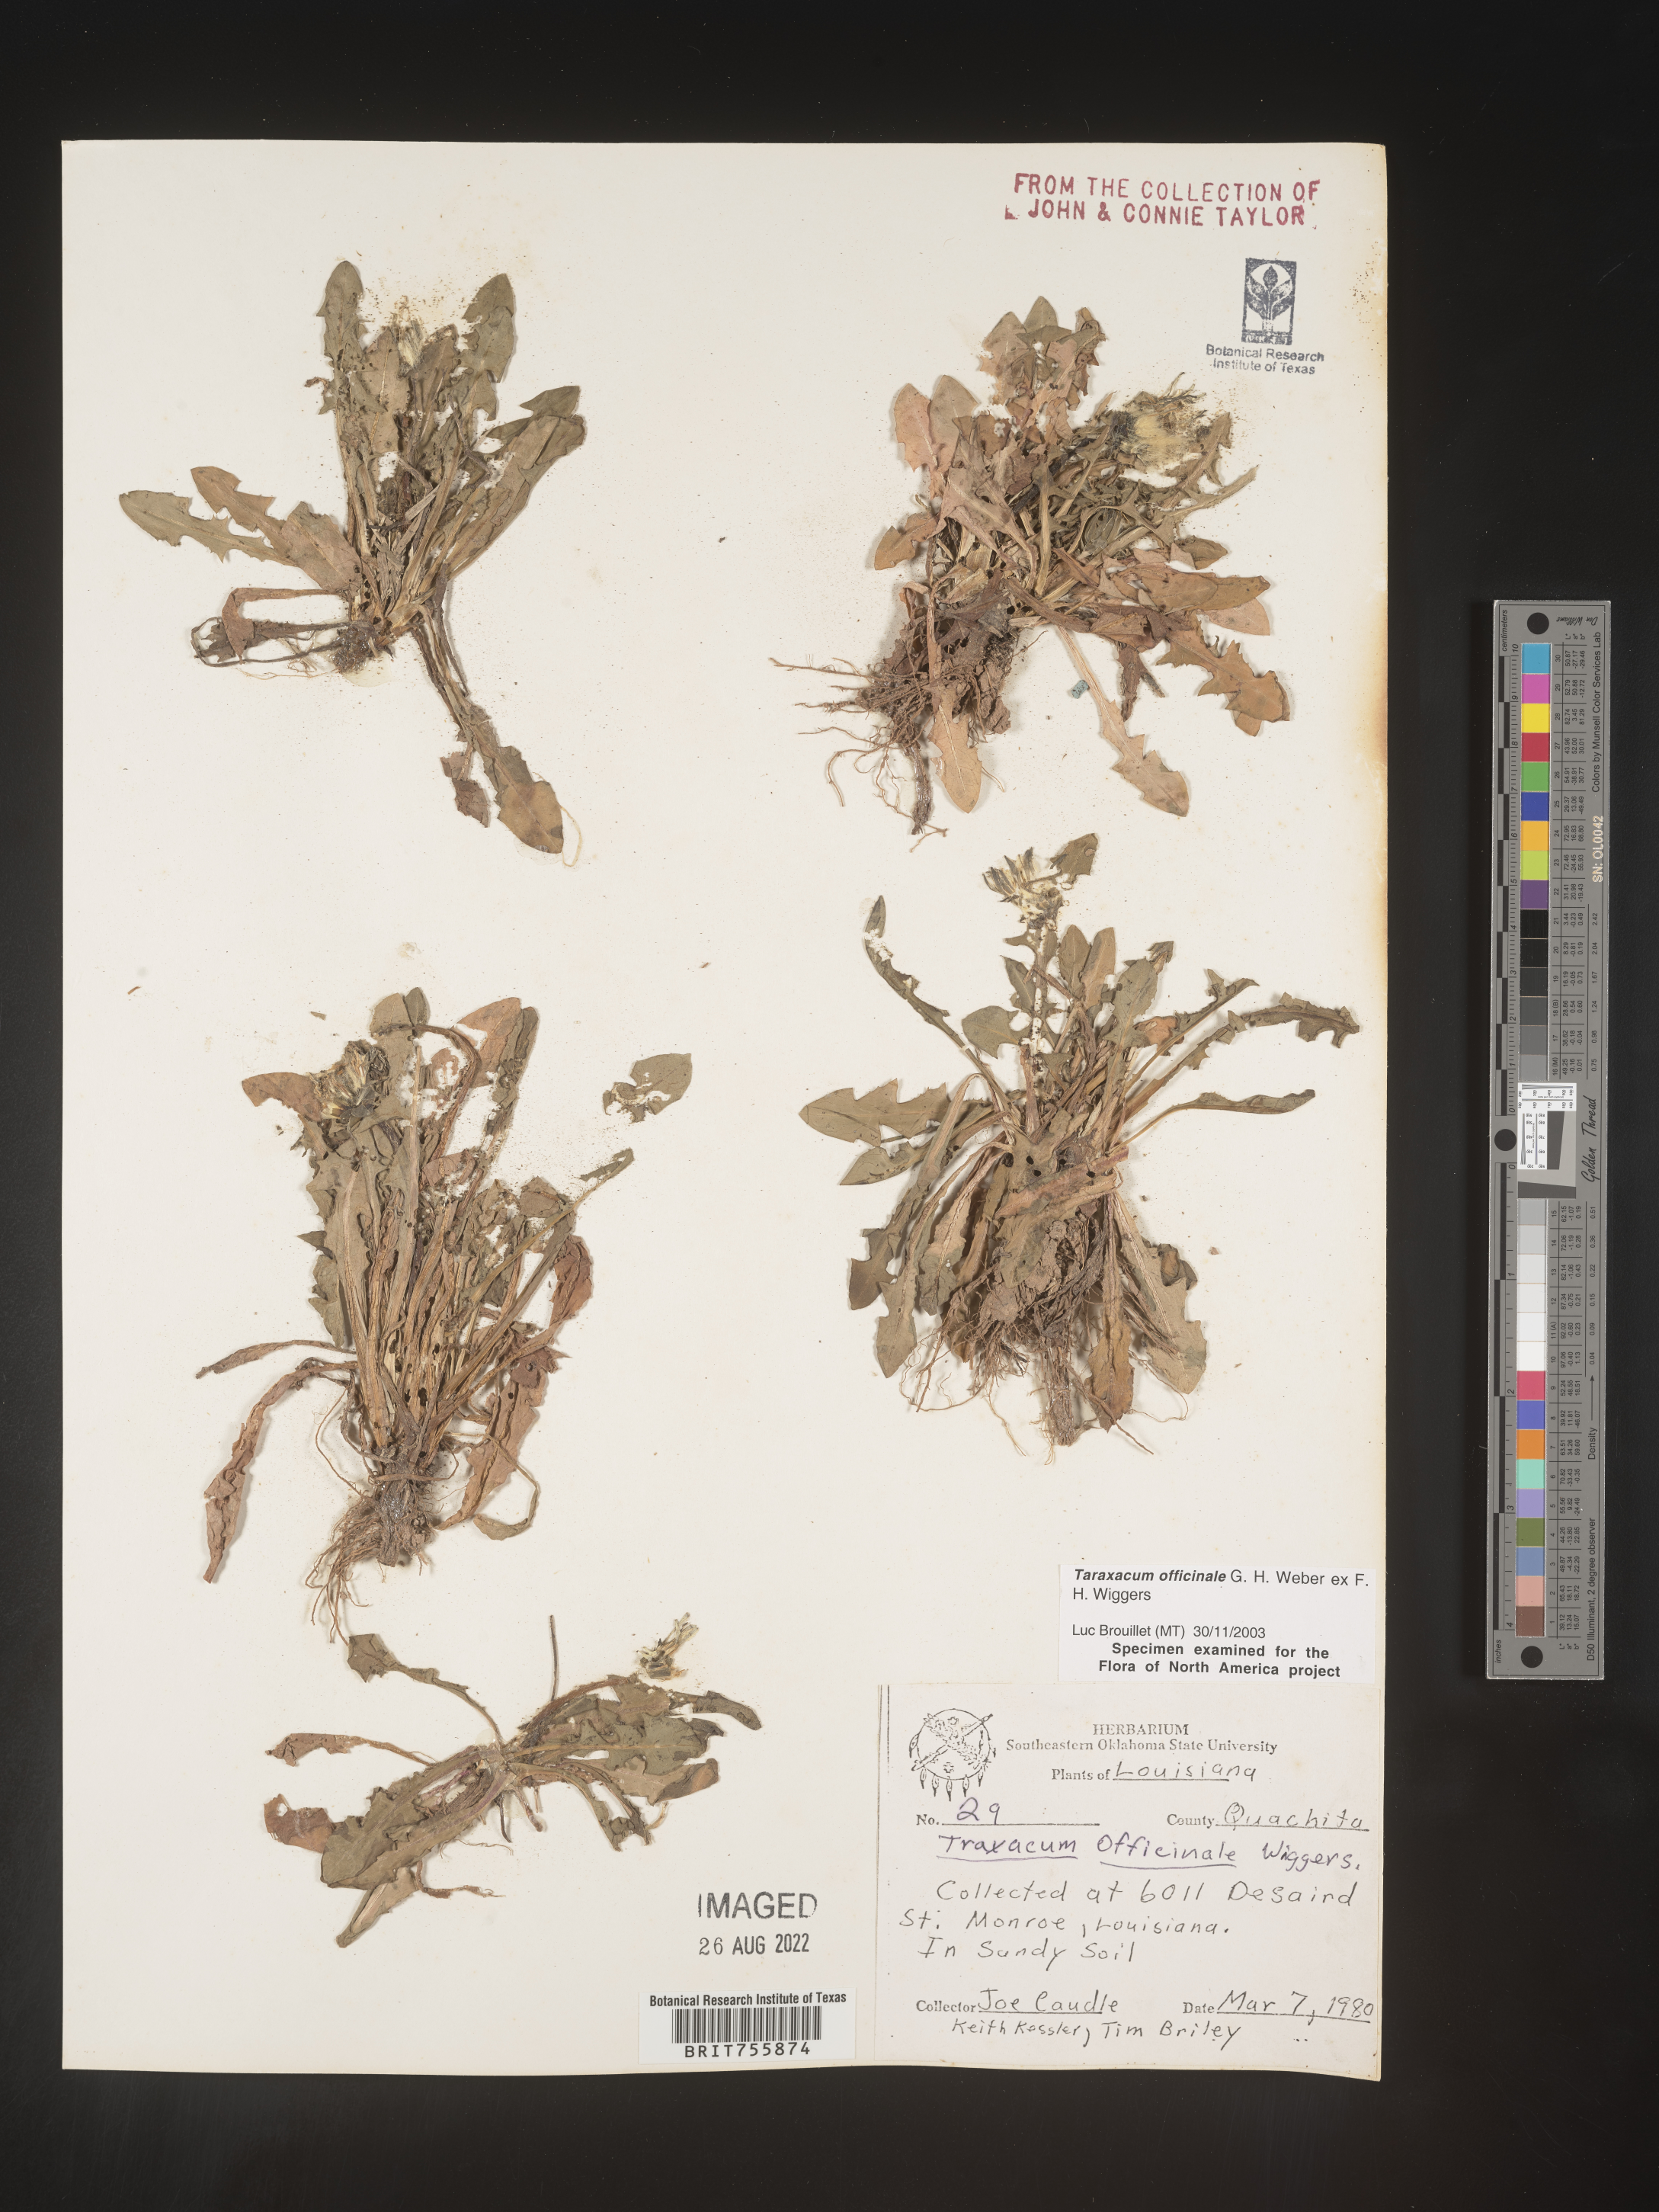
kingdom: Plantae
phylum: Tracheophyta
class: Magnoliopsida
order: Asterales
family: Asteraceae
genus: Taraxacum
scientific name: Taraxacum officinale
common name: Common dandelion
